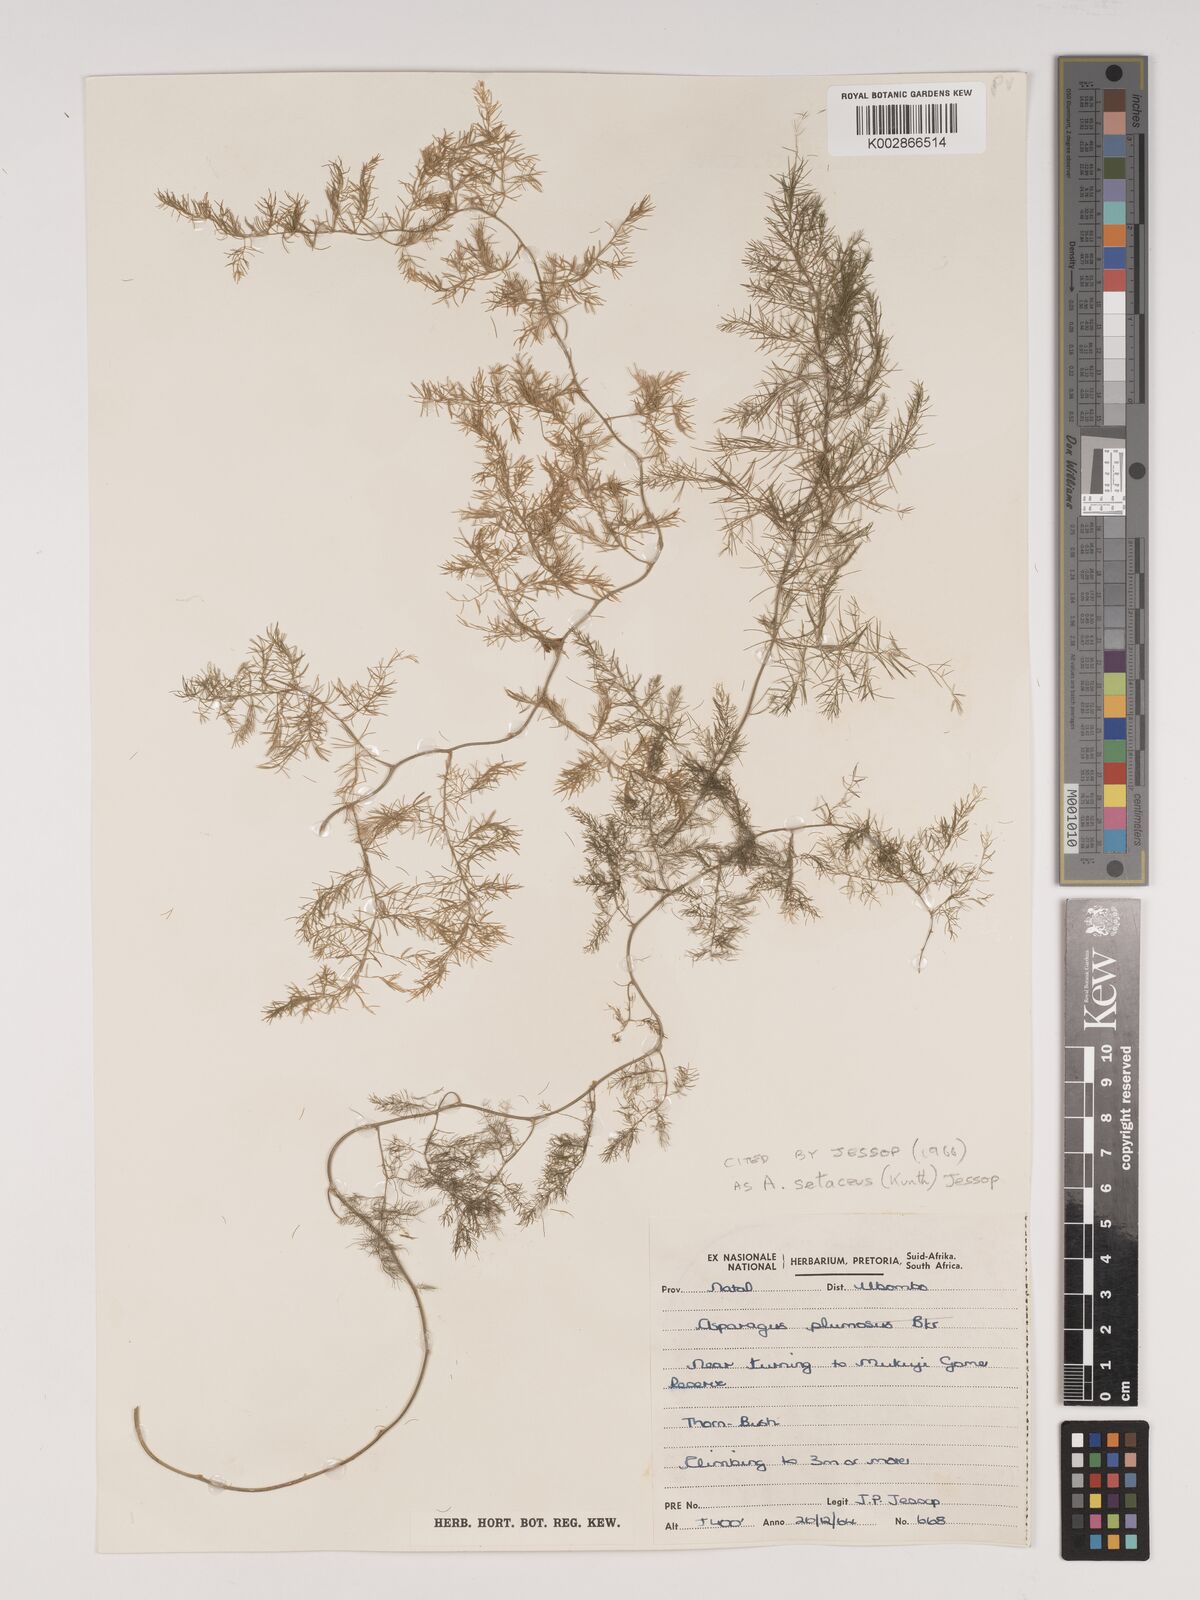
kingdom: Plantae
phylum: Tracheophyta
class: Liliopsida
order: Asparagales
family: Asparagaceae
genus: Asparagus
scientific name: Asparagus setaceus
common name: Common asparagus fern
